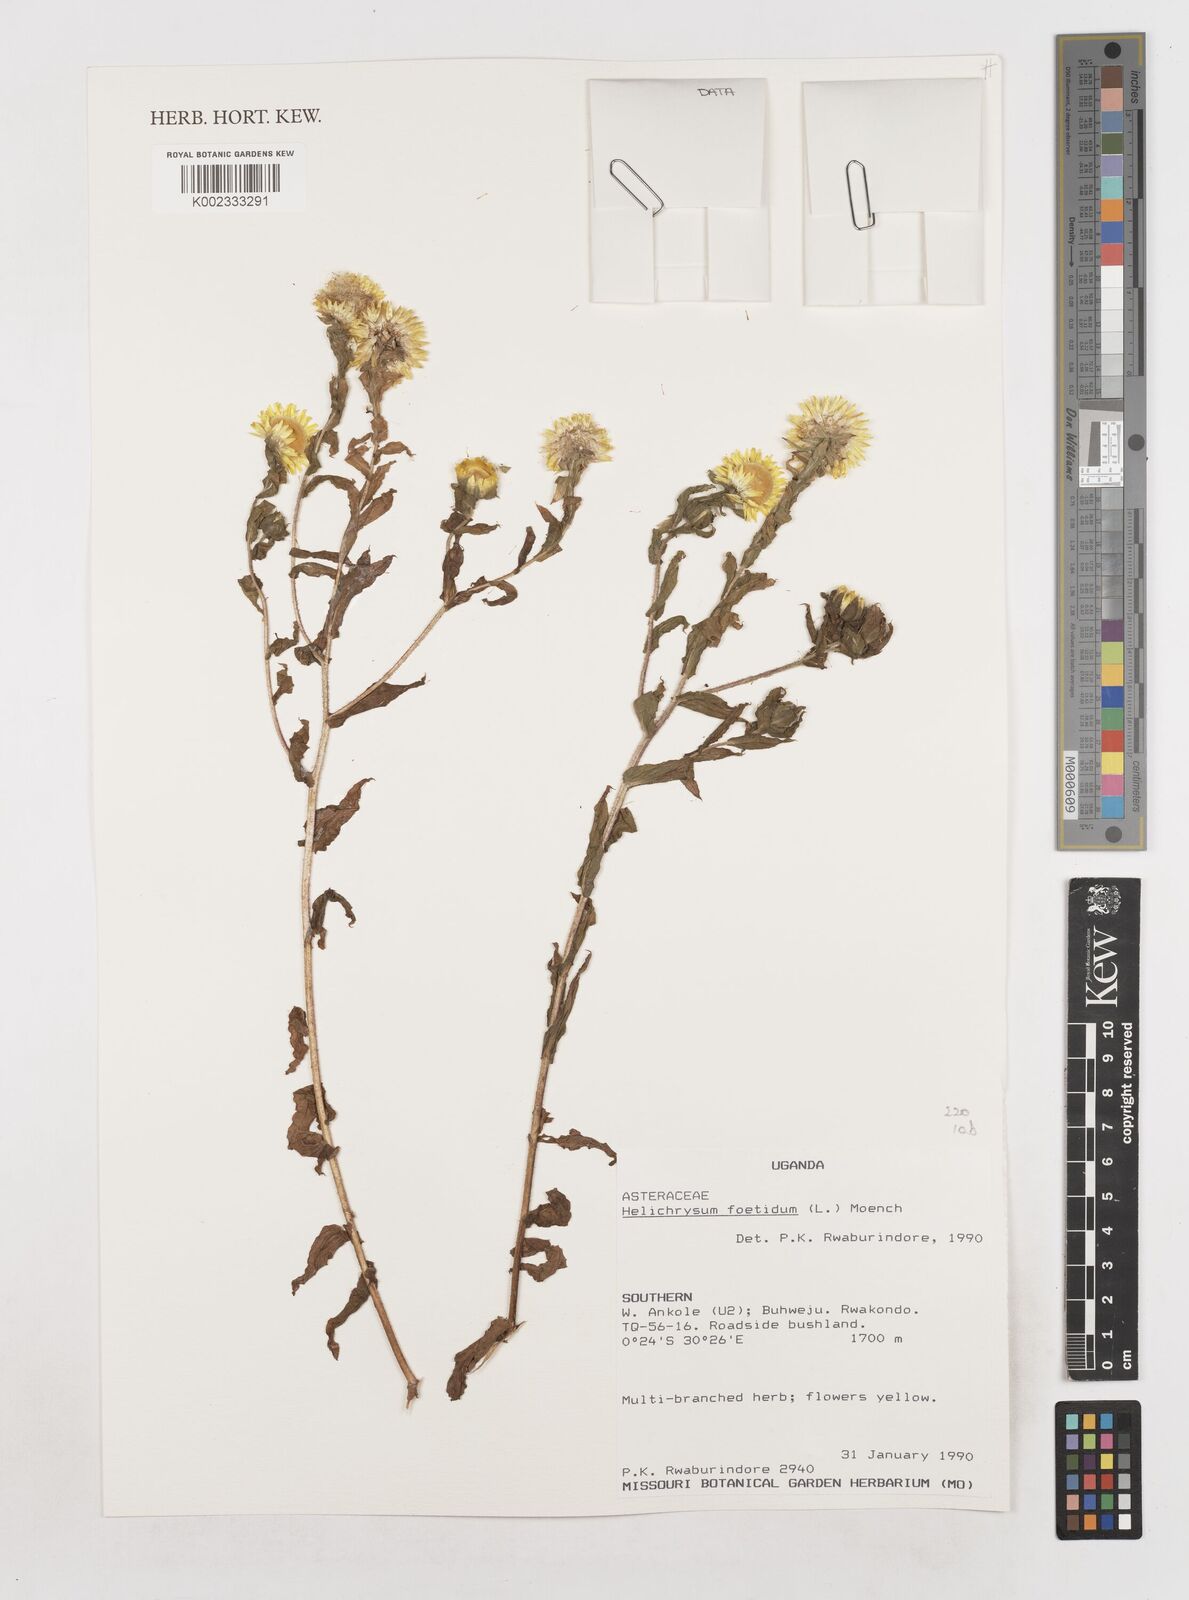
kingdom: Plantae
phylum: Tracheophyta
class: Magnoliopsida
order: Asterales
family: Asteraceae
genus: Helichrysum
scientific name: Helichrysum foetidum
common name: Stinking everlasting
